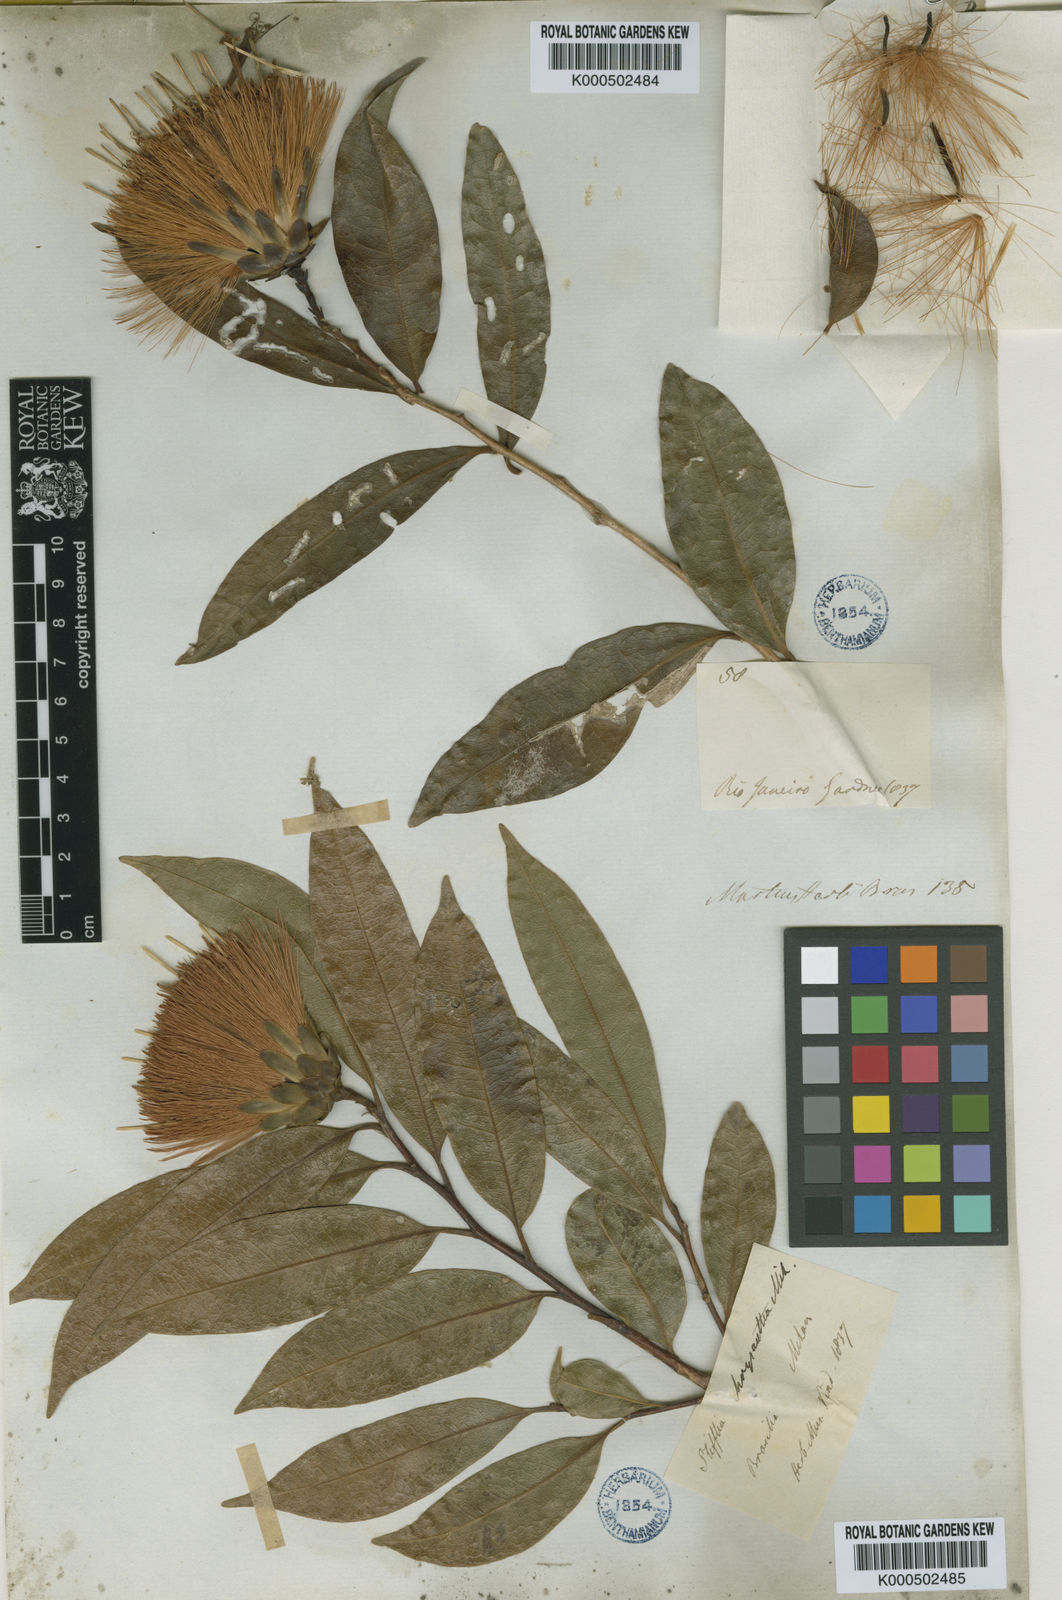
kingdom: Plantae
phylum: Tracheophyta
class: Magnoliopsida
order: Asterales
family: Asteraceae
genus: Stifftia
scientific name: Stifftia chrysantha
